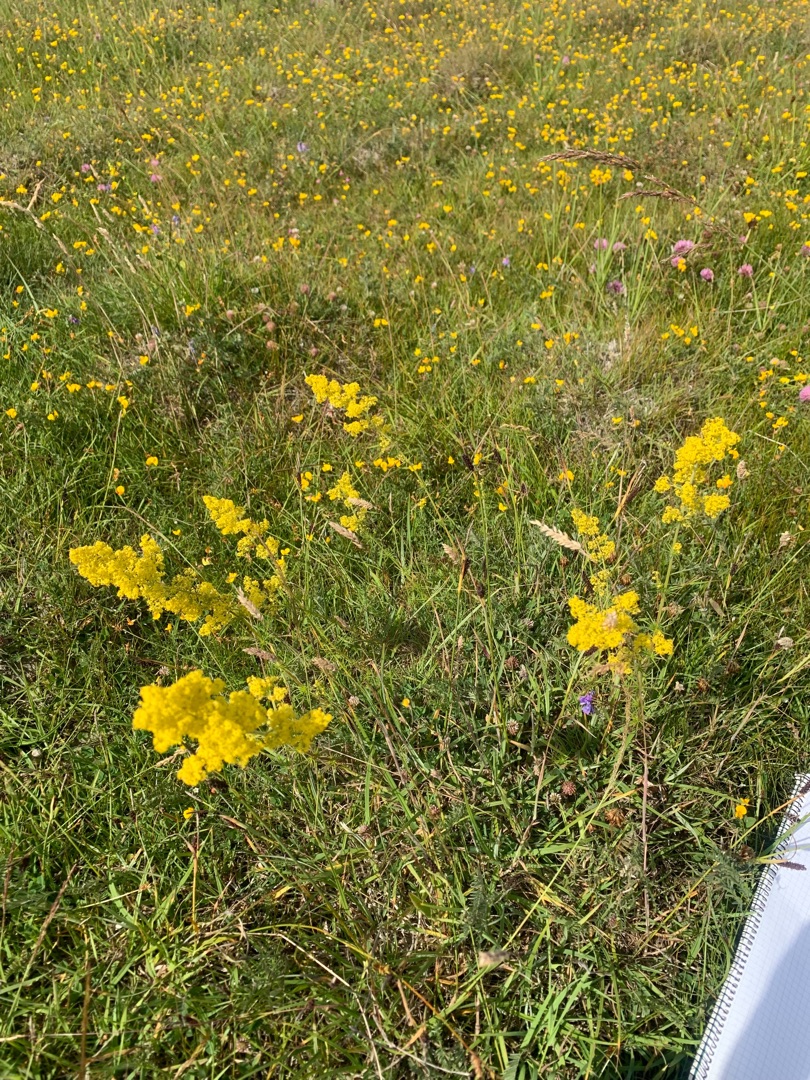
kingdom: Plantae
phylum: Tracheophyta
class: Magnoliopsida
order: Gentianales
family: Rubiaceae
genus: Galium
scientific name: Galium verum
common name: Gul snerre
